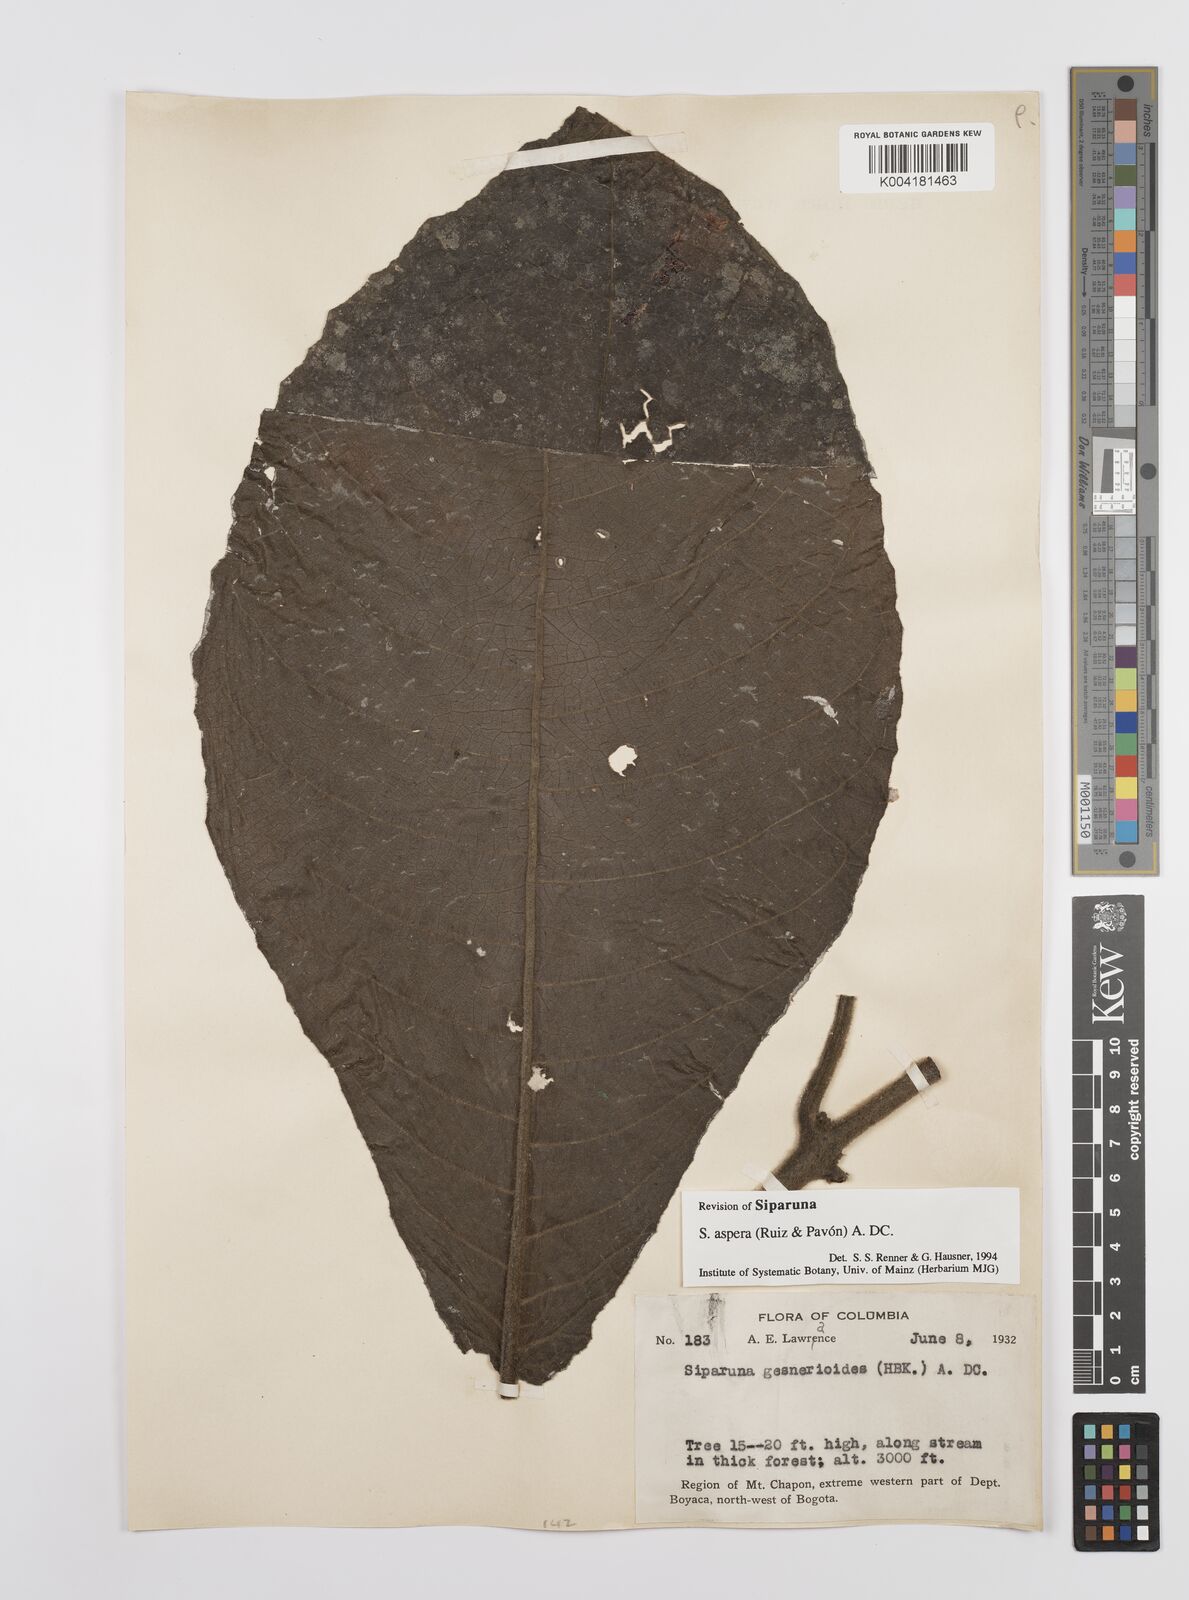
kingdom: Plantae
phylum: Tracheophyta
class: Magnoliopsida
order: Laurales
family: Siparunaceae
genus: Siparuna
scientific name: Siparuna aspera
